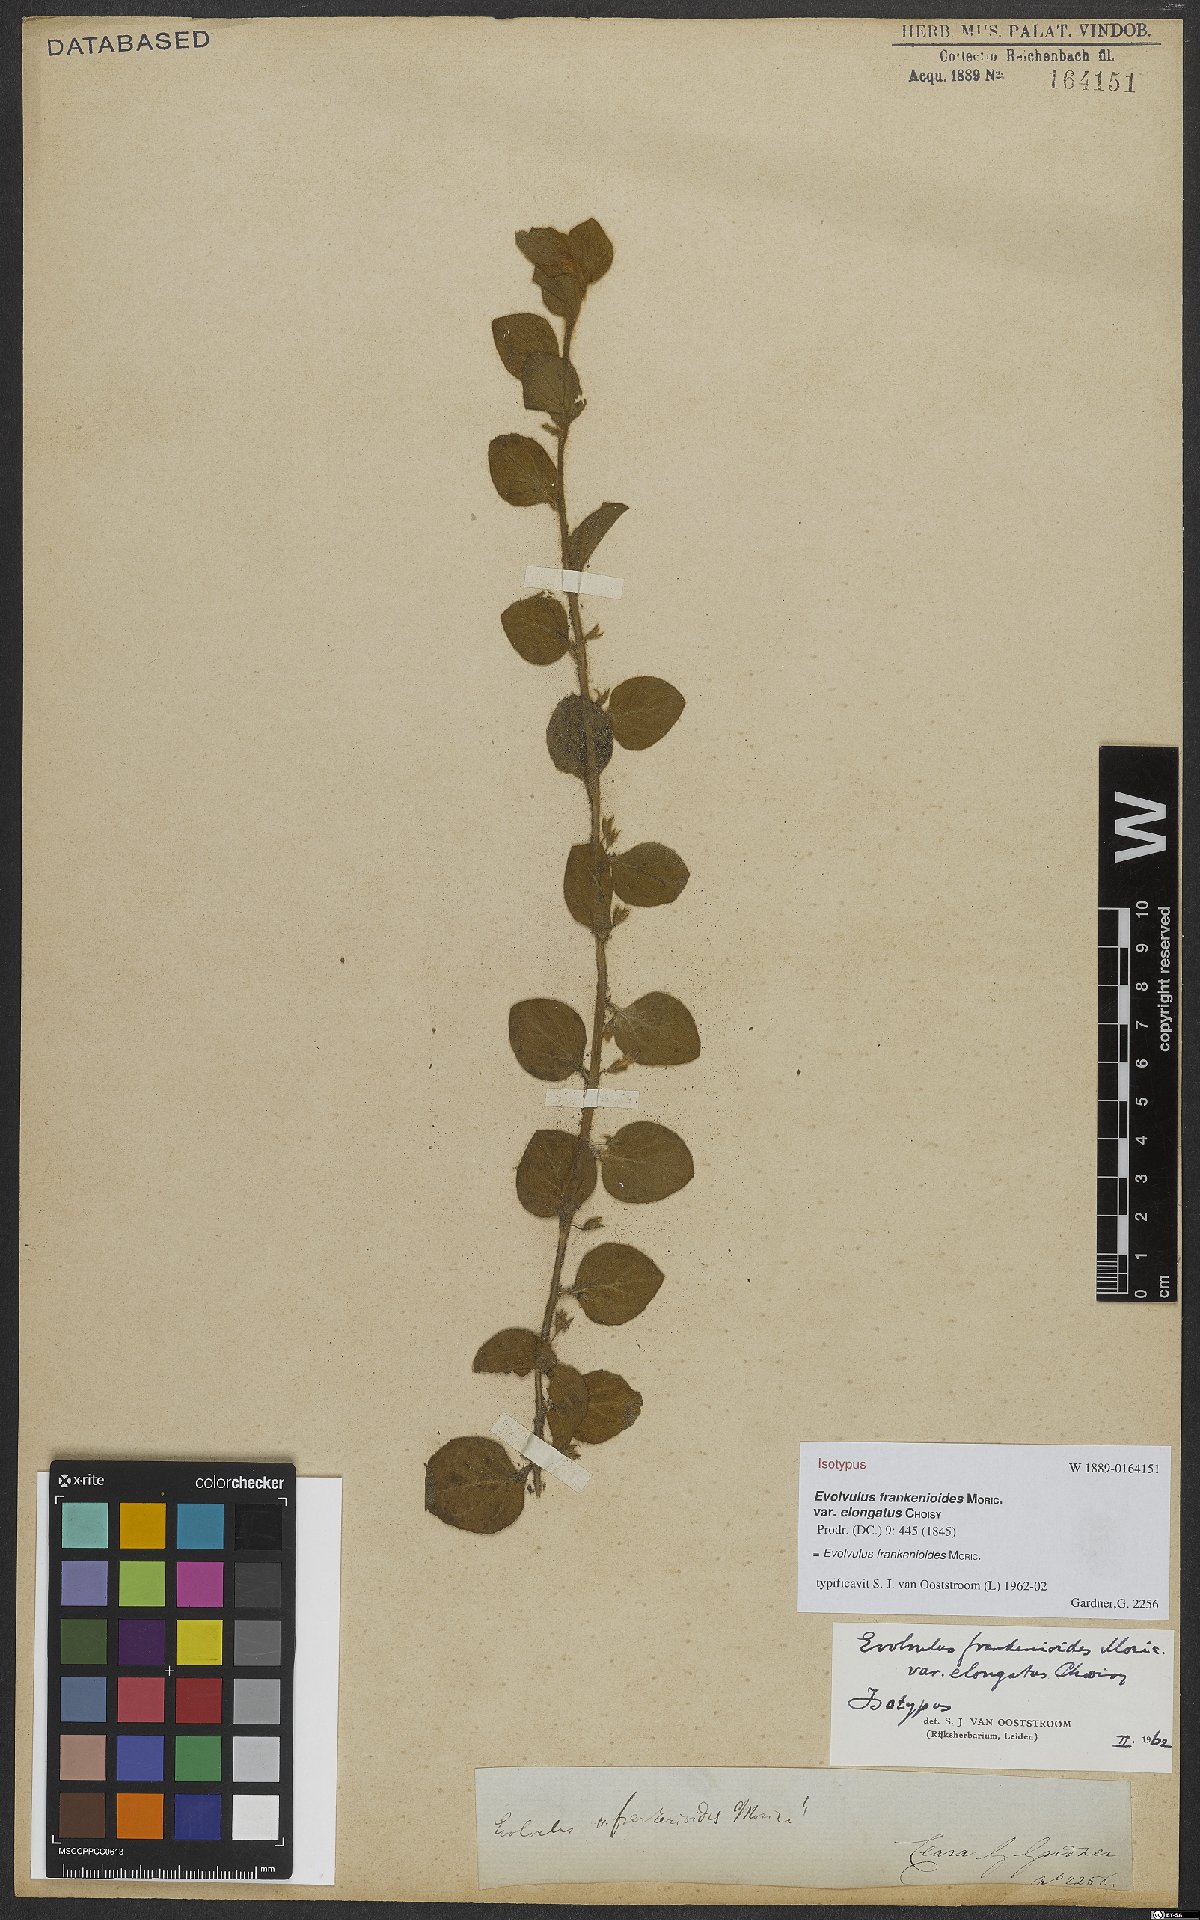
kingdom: Plantae
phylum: Tracheophyta
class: Magnoliopsida
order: Solanales
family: Convolvulaceae
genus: Evolvulus
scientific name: Evolvulus frankenioides
